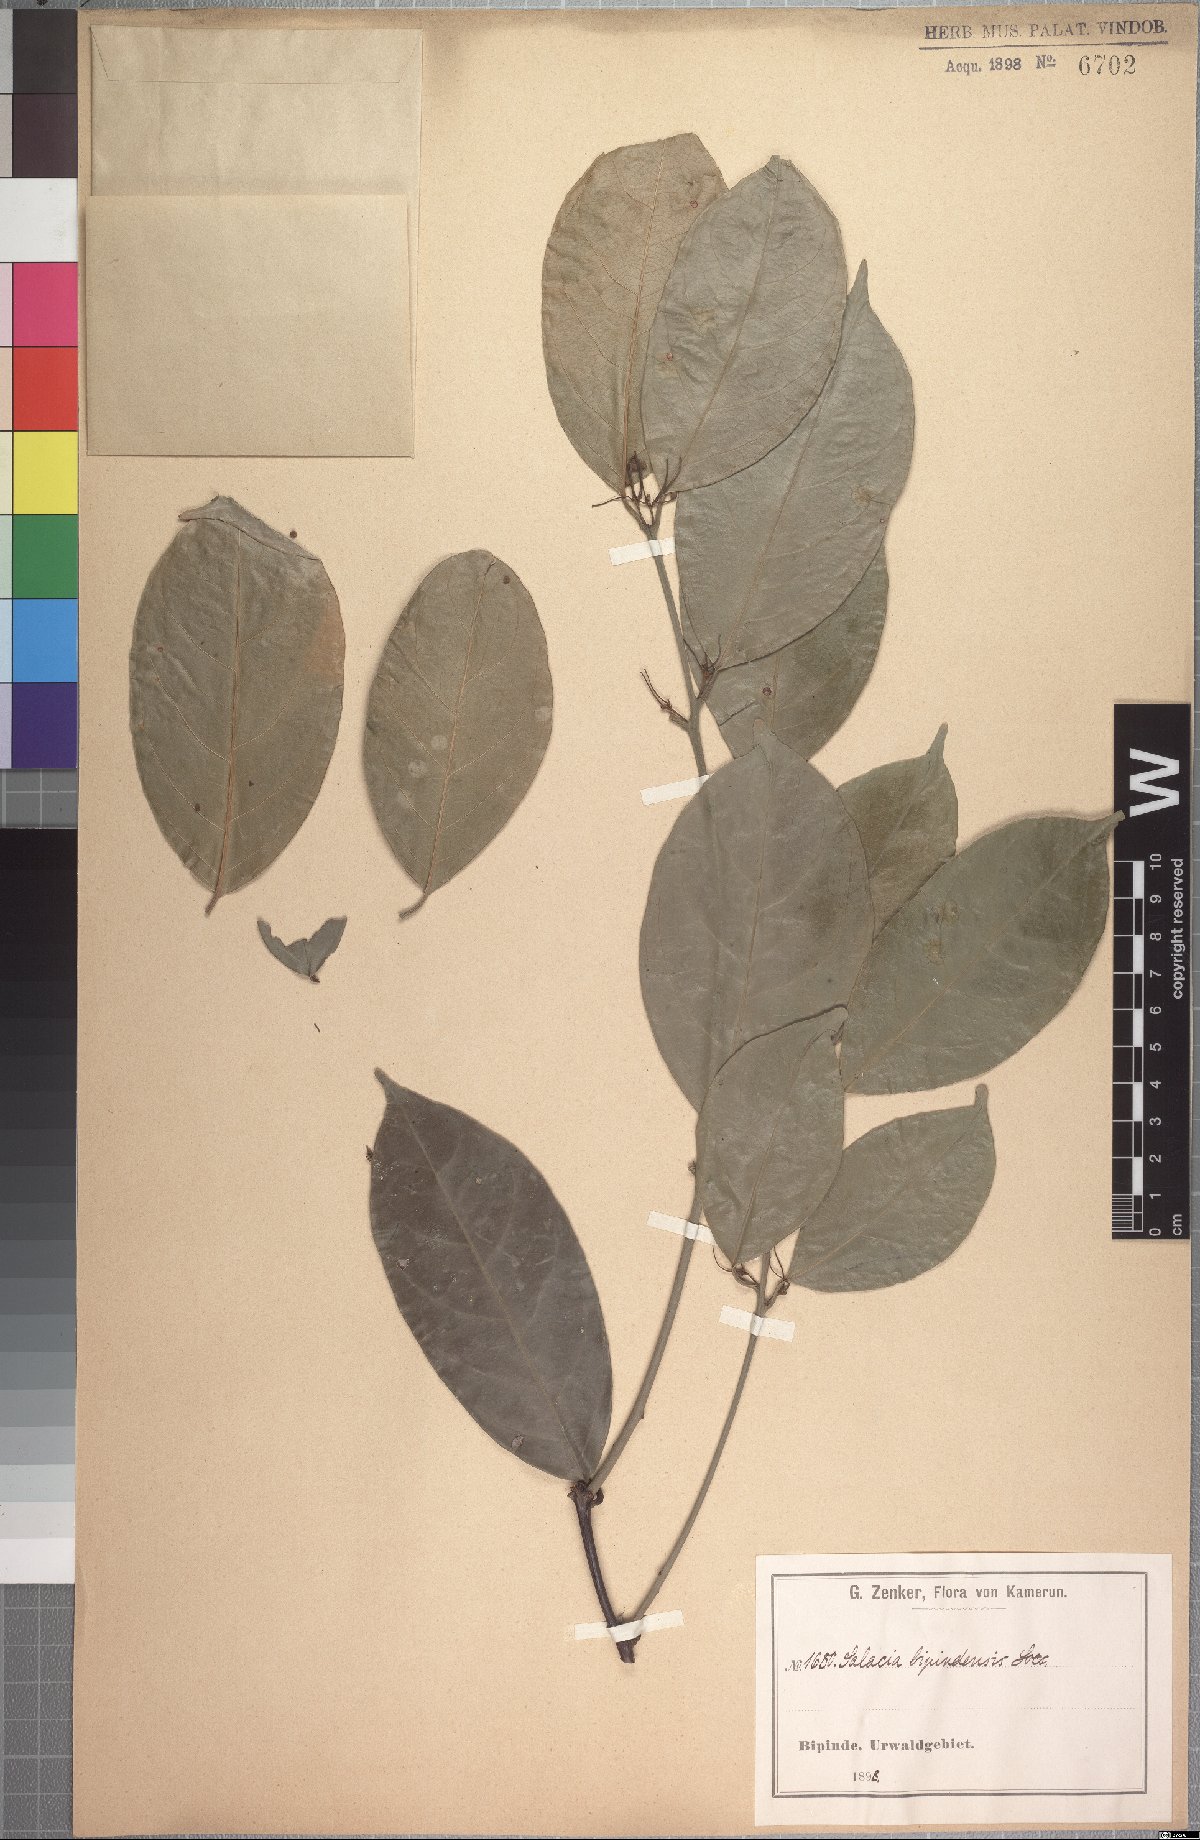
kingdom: Plantae
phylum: Tracheophyta
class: Magnoliopsida
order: Celastrales
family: Celastraceae
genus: Salacia
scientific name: Salacia nitida
